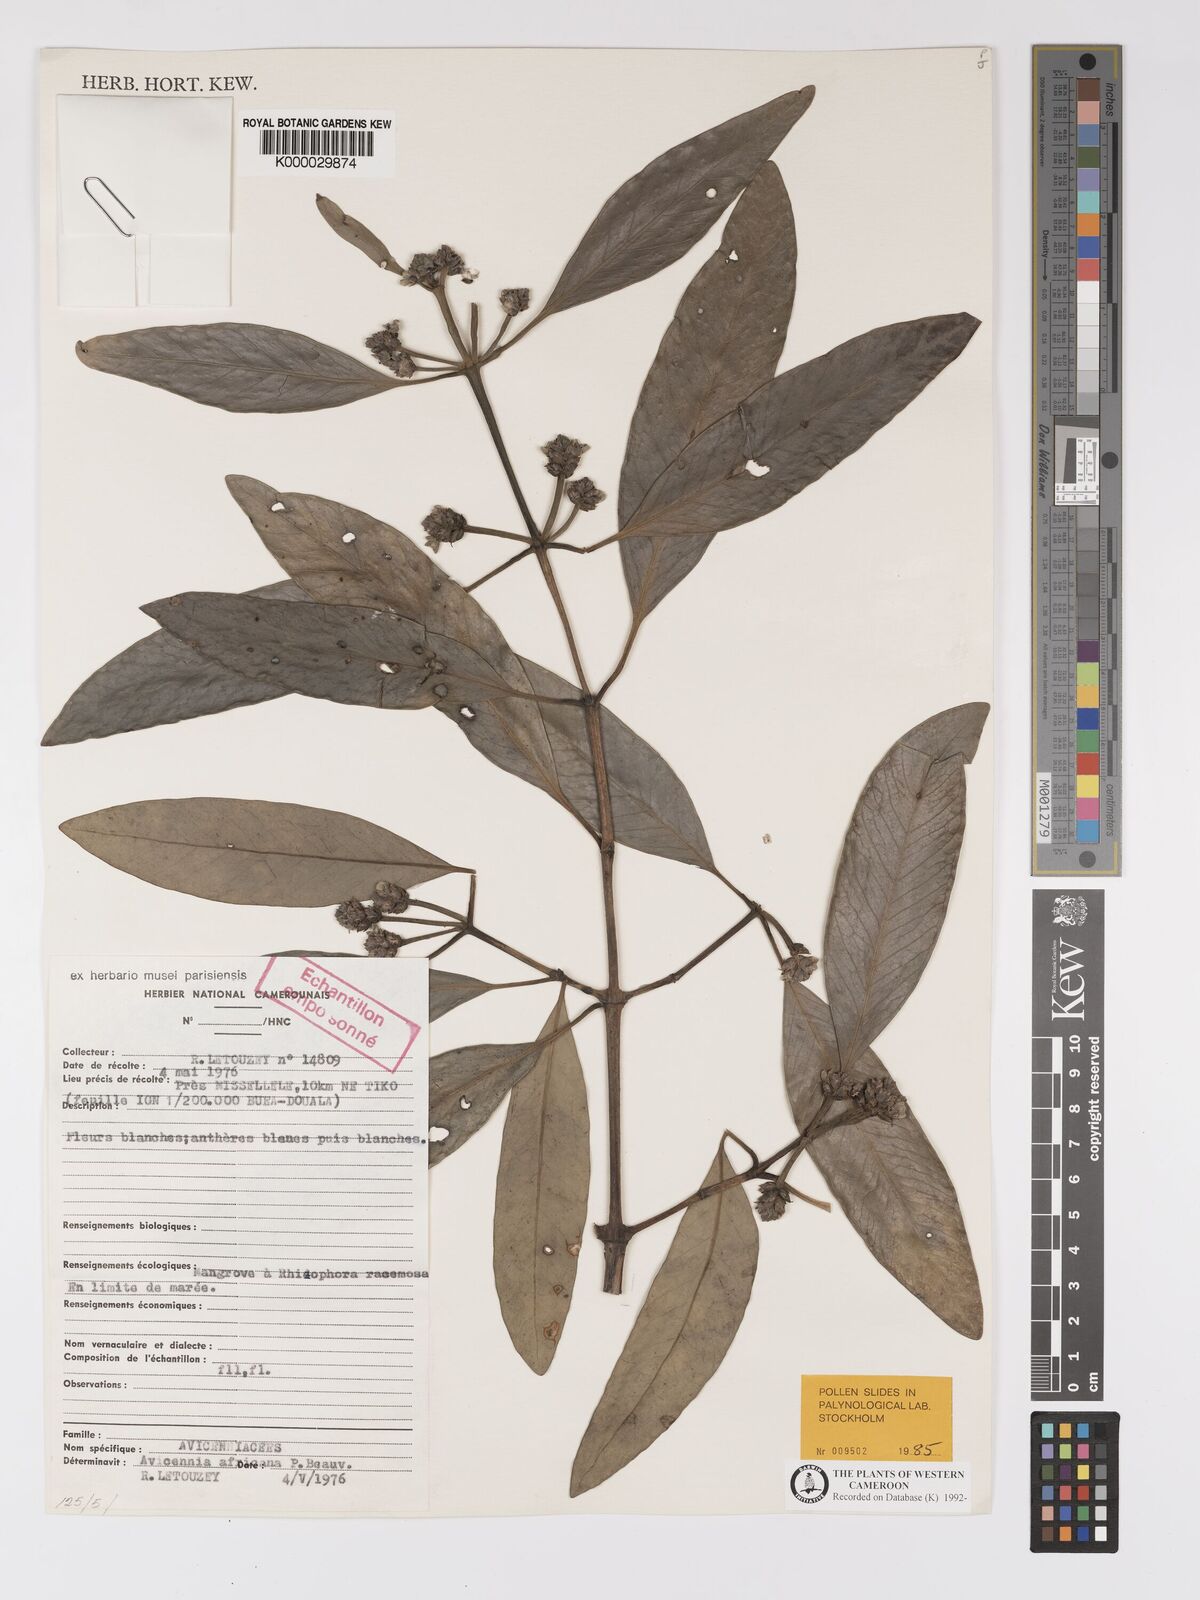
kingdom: Plantae
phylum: Tracheophyta
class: Magnoliopsida
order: Lamiales
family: Acanthaceae
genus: Avicennia
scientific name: Avicennia germinans
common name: Black mangrove
